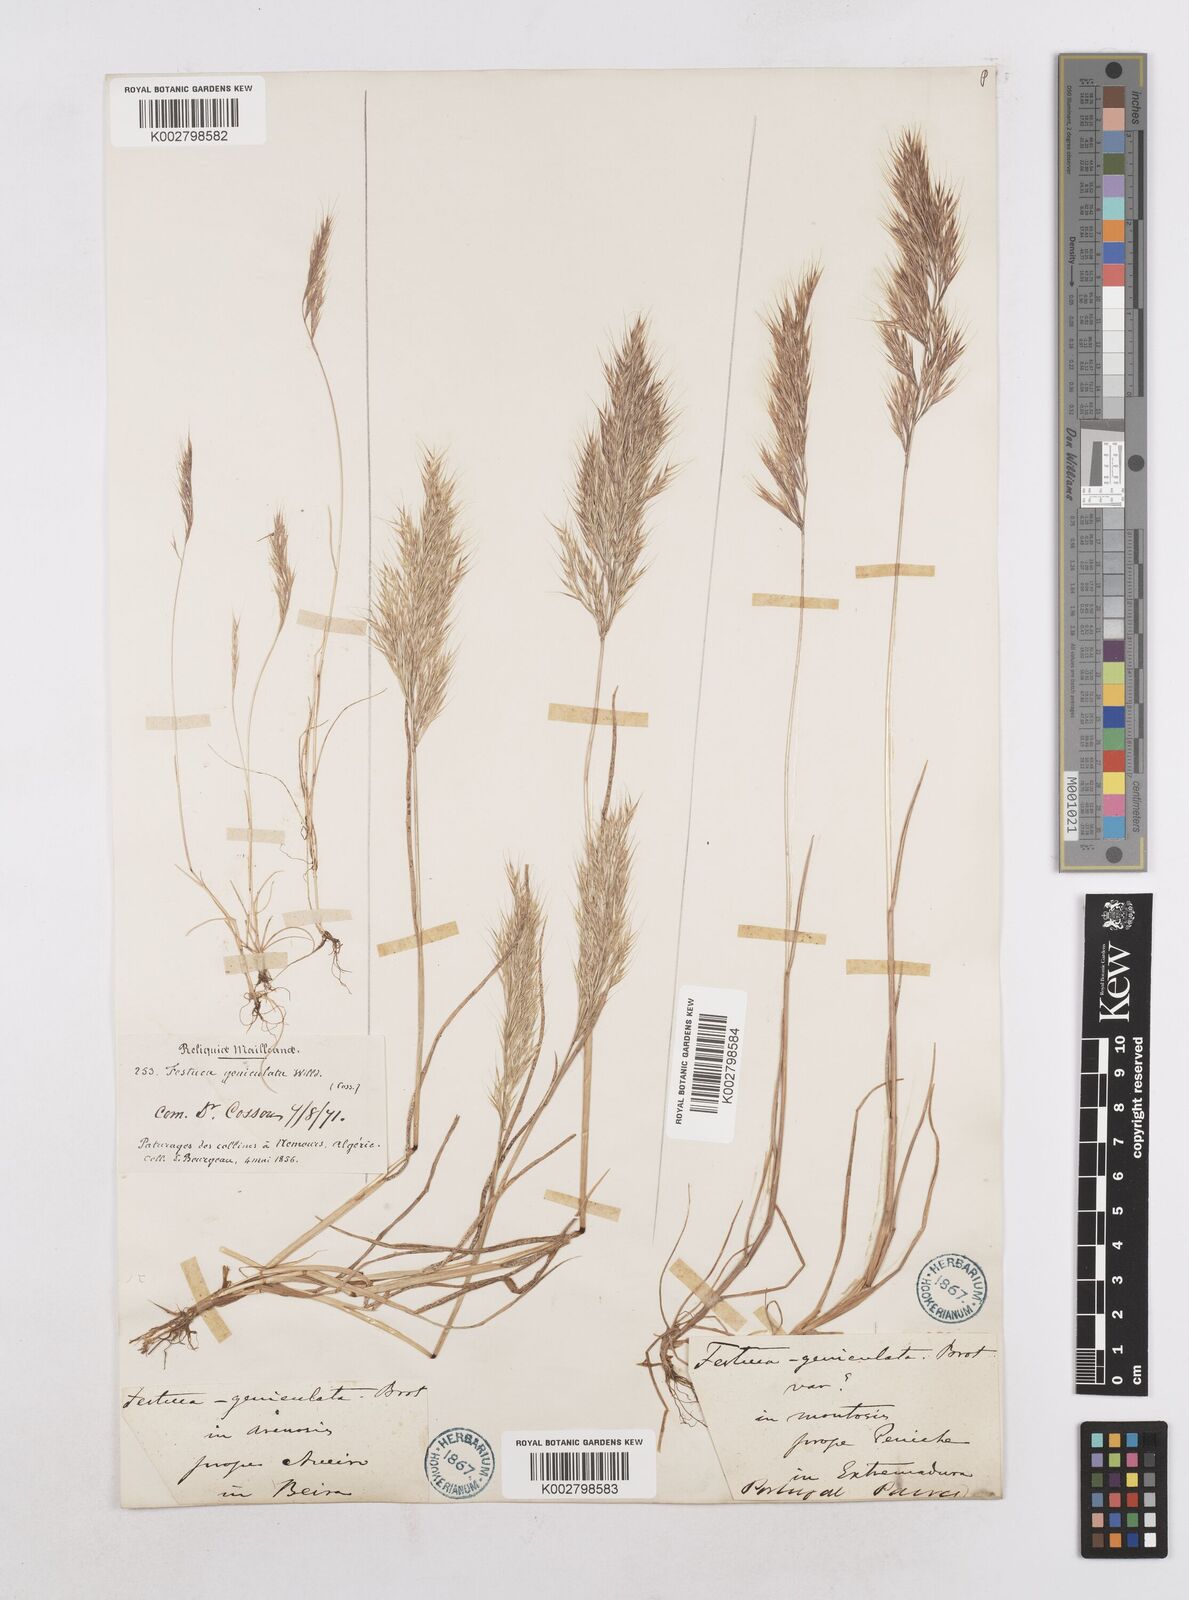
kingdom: Plantae
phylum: Tracheophyta
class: Liliopsida
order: Poales
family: Poaceae
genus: Festuca
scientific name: Festuca geniculata
